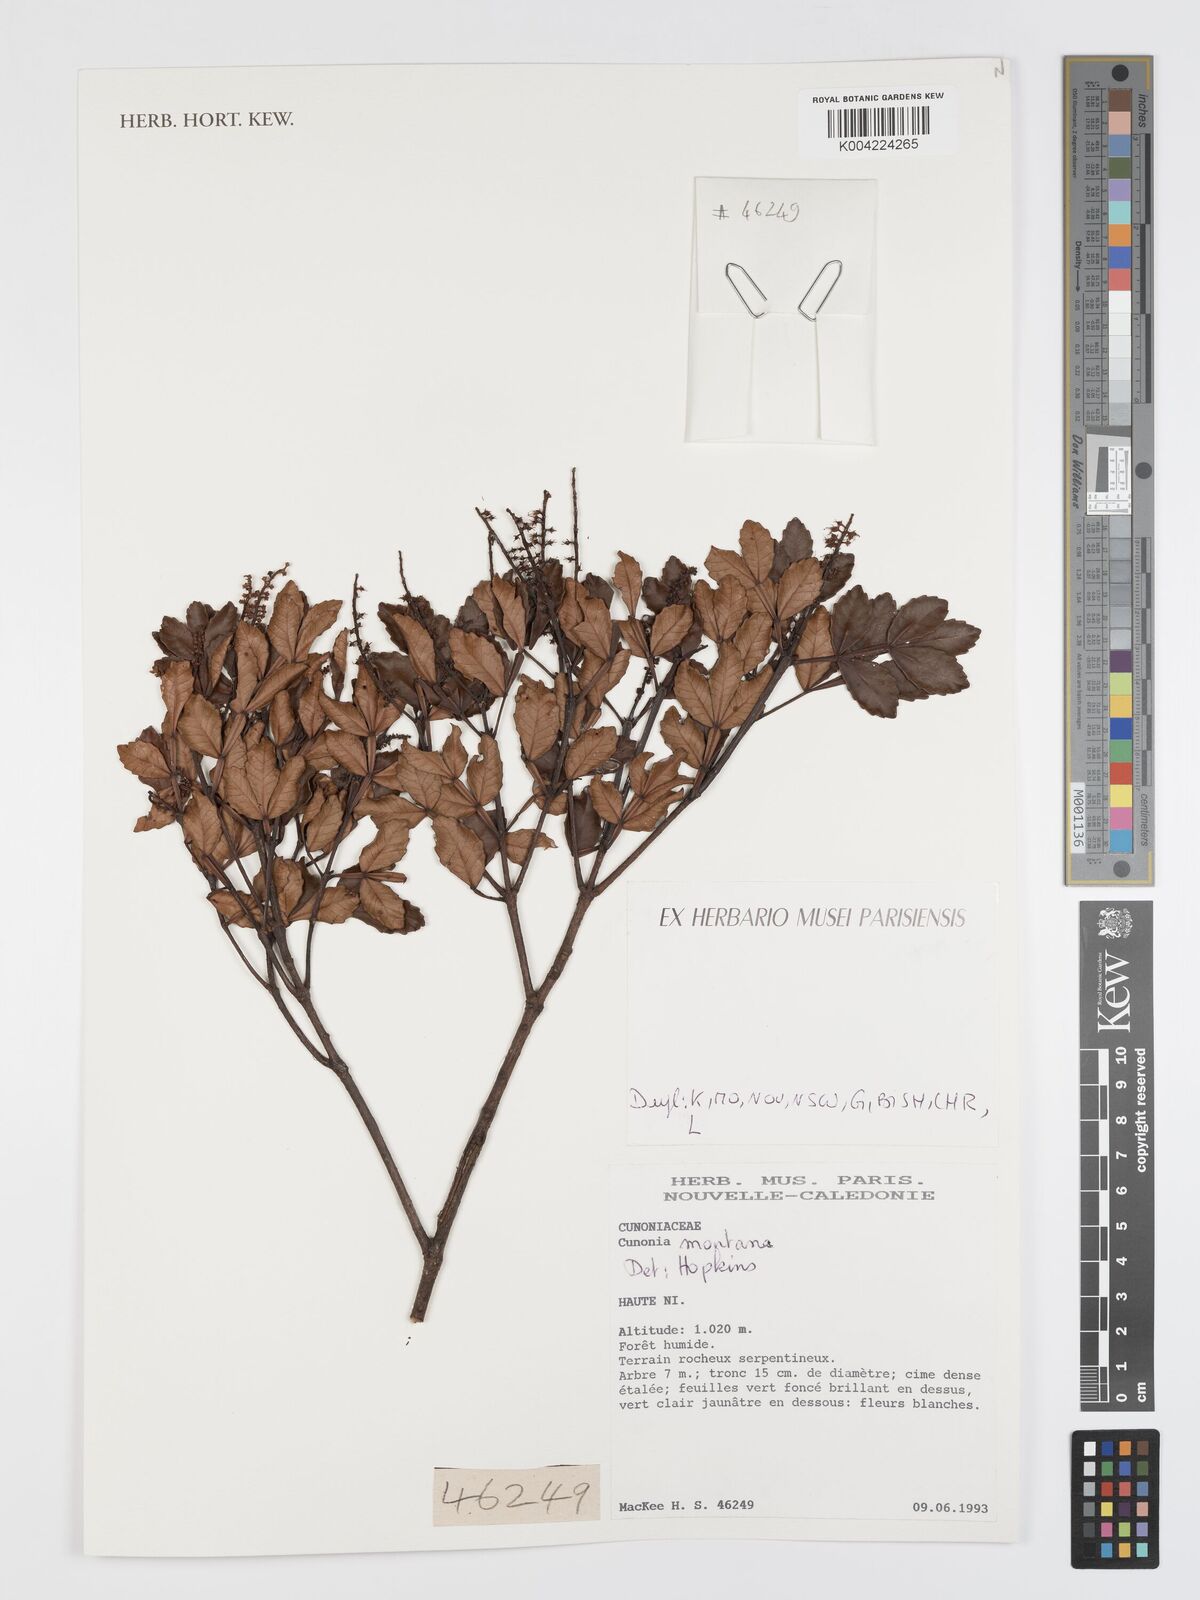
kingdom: Plantae
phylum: Tracheophyta
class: Magnoliopsida
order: Oxalidales
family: Cunoniaceae
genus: Cunonia
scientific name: Cunonia montana
